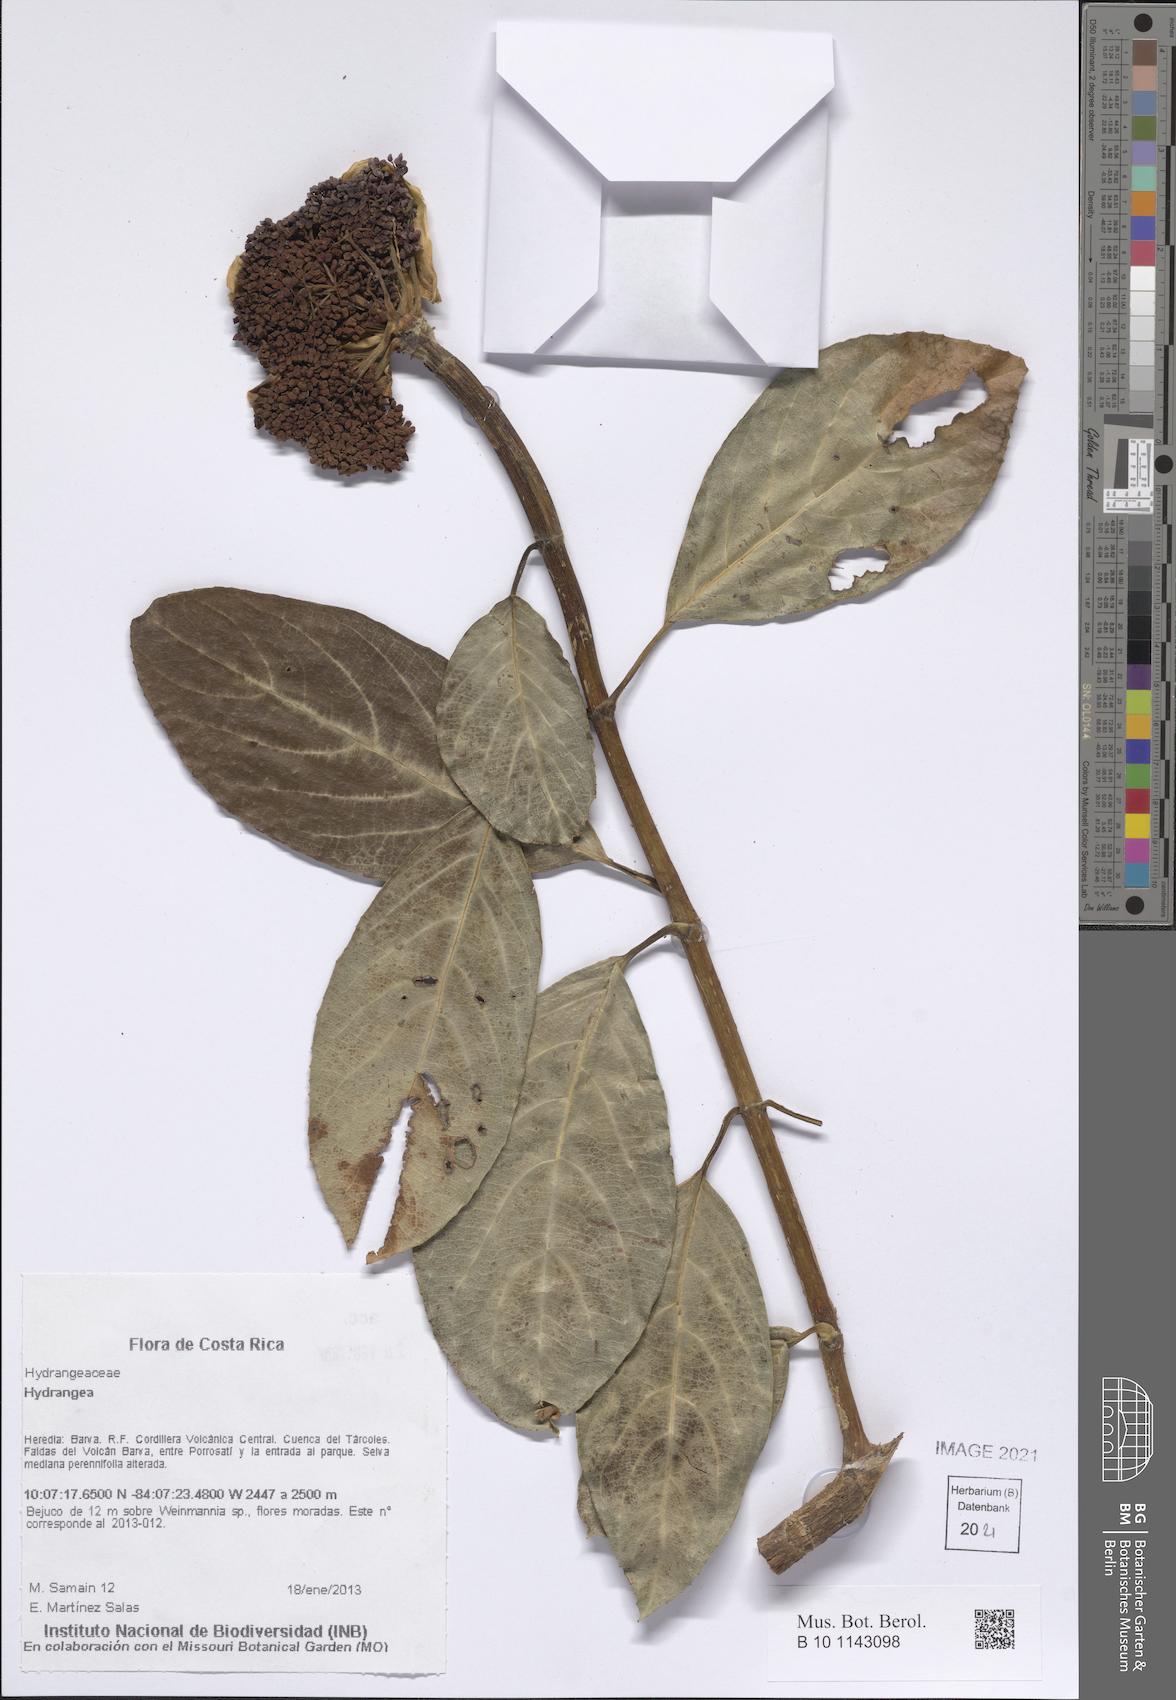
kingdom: Plantae
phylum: Tracheophyta
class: Magnoliopsida
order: Cornales
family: Hydrangeaceae
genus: Hydrangea
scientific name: Hydrangea
